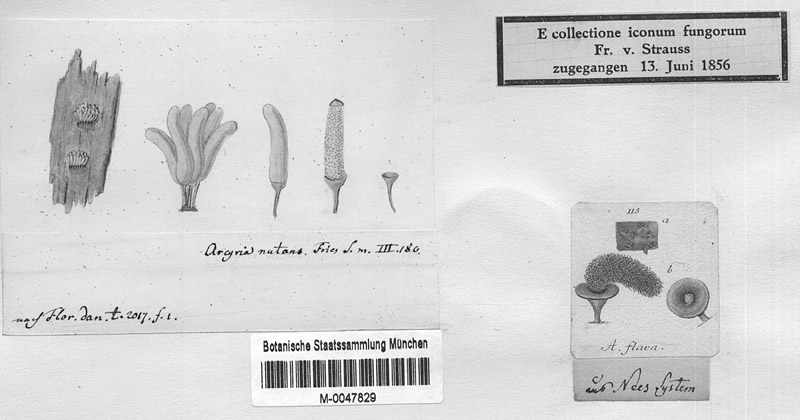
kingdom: Protozoa
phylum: Mycetozoa
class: Myxomycetes
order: Trichiales
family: Arcyriaceae
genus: Arcyria
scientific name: Arcyria obvelata
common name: Yellow carnival candy slime
